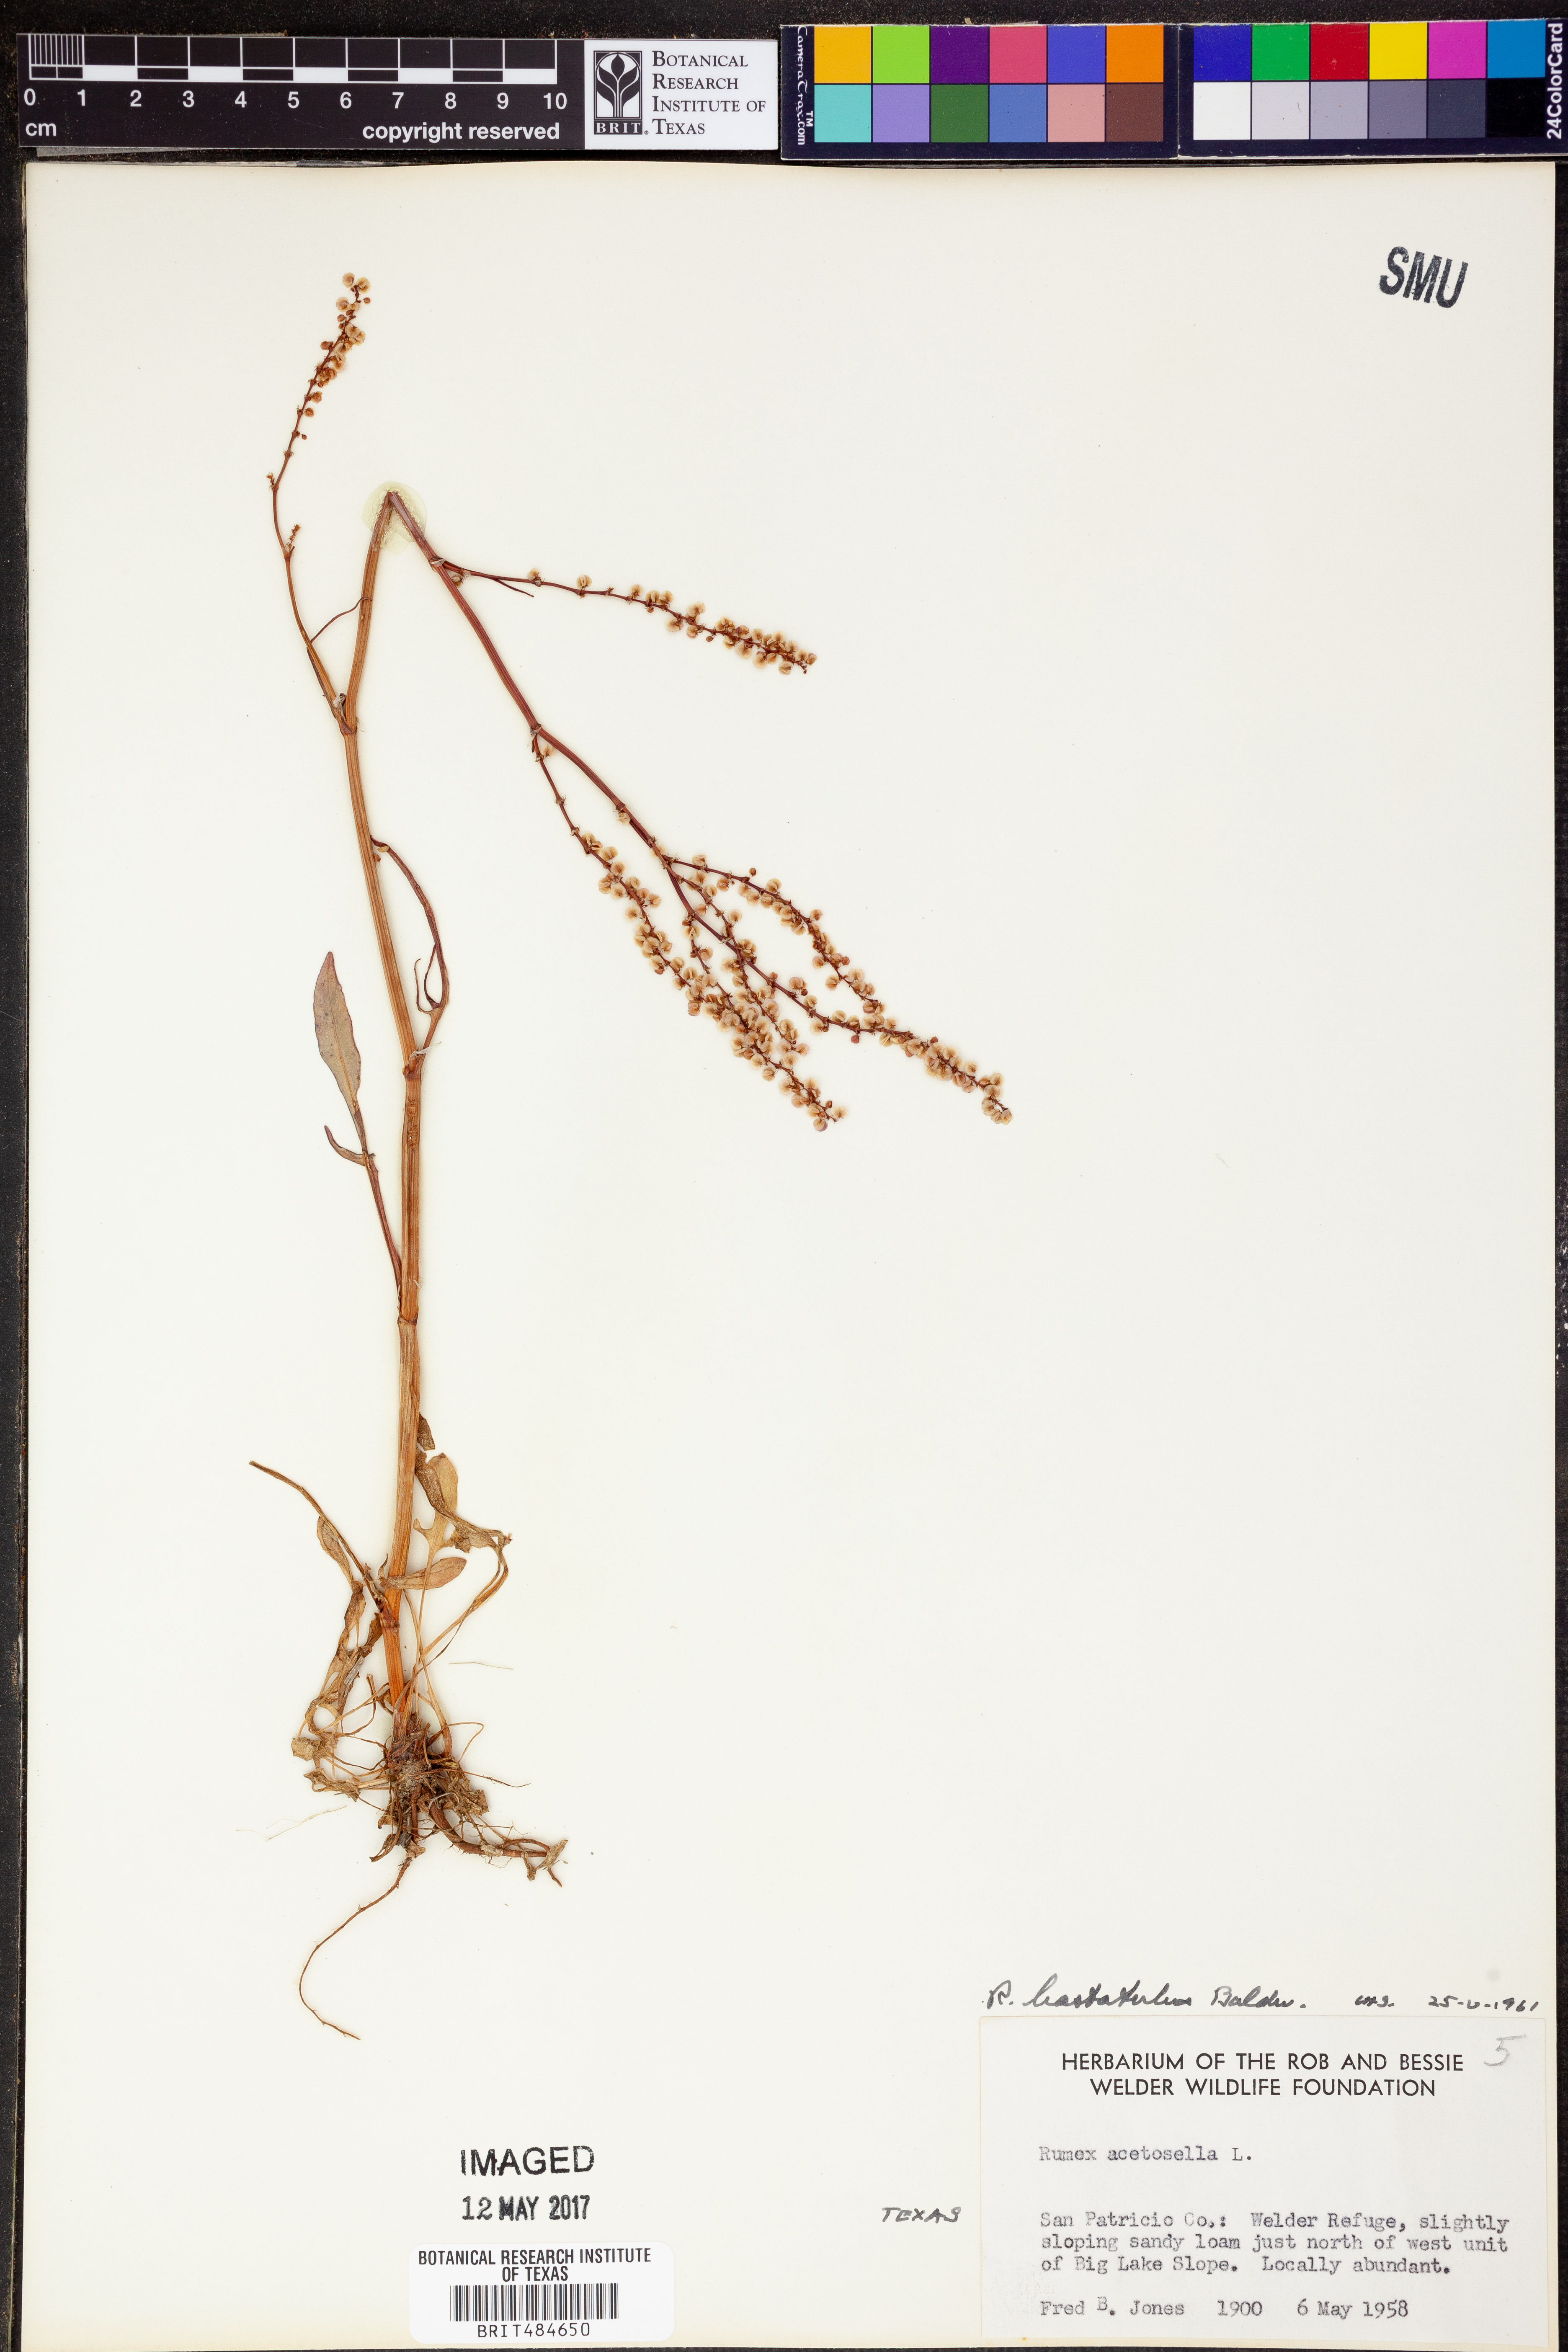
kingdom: Plantae
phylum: Tracheophyta
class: Magnoliopsida
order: Caryophyllales
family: Polygonaceae
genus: Rumex
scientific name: Rumex hastatulus
